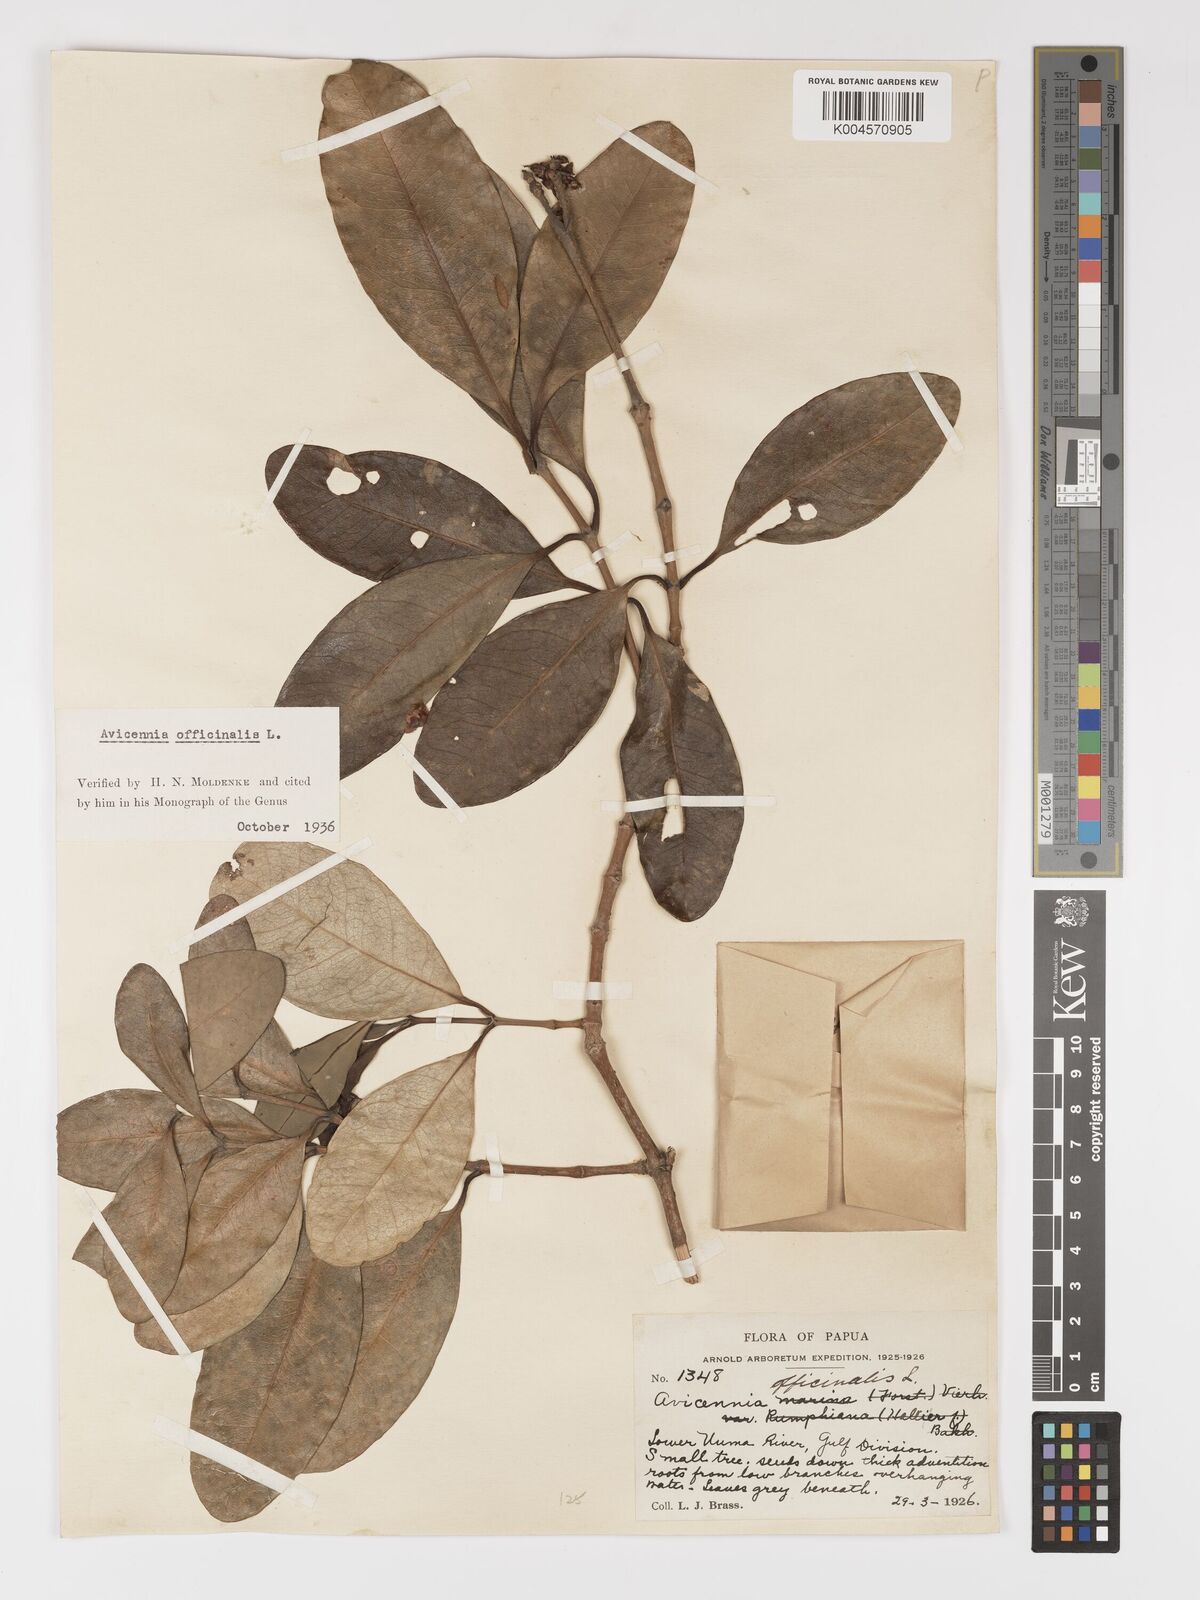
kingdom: Plantae
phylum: Tracheophyta
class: Magnoliopsida
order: Lamiales
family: Acanthaceae
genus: Avicennia
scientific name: Avicennia officinalis
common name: Baen
